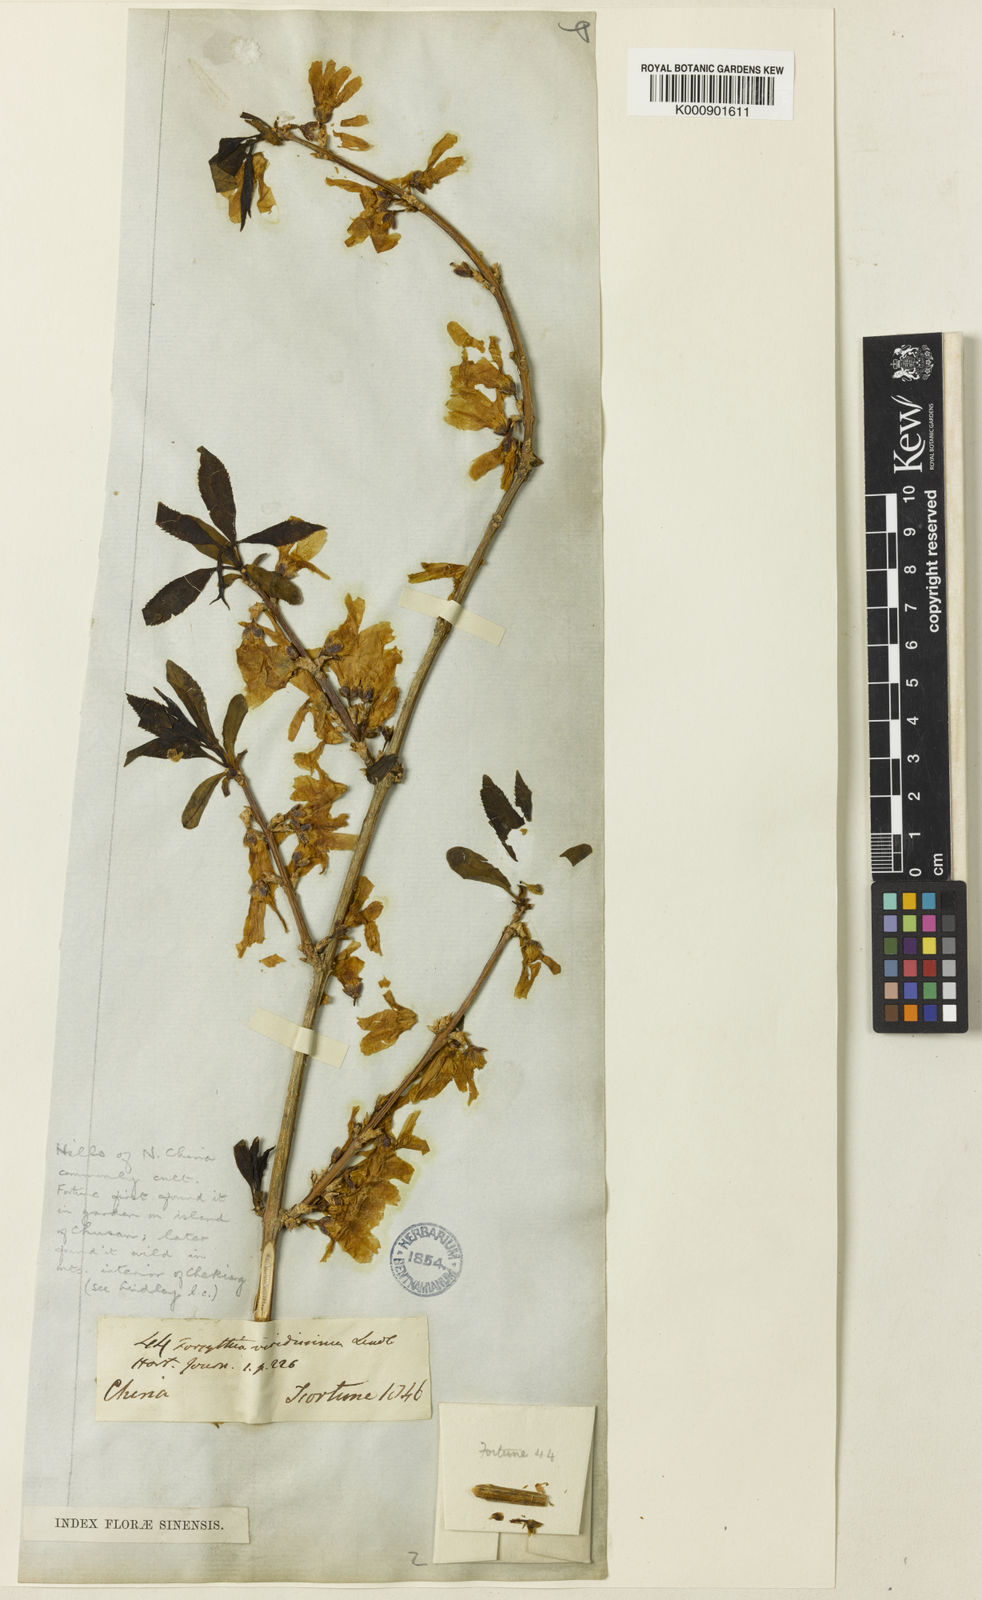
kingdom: Plantae
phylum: Tracheophyta
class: Magnoliopsida
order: Lamiales
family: Oleaceae
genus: Forsythia
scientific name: Forsythia viridissima
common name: Greenstem forsythia
